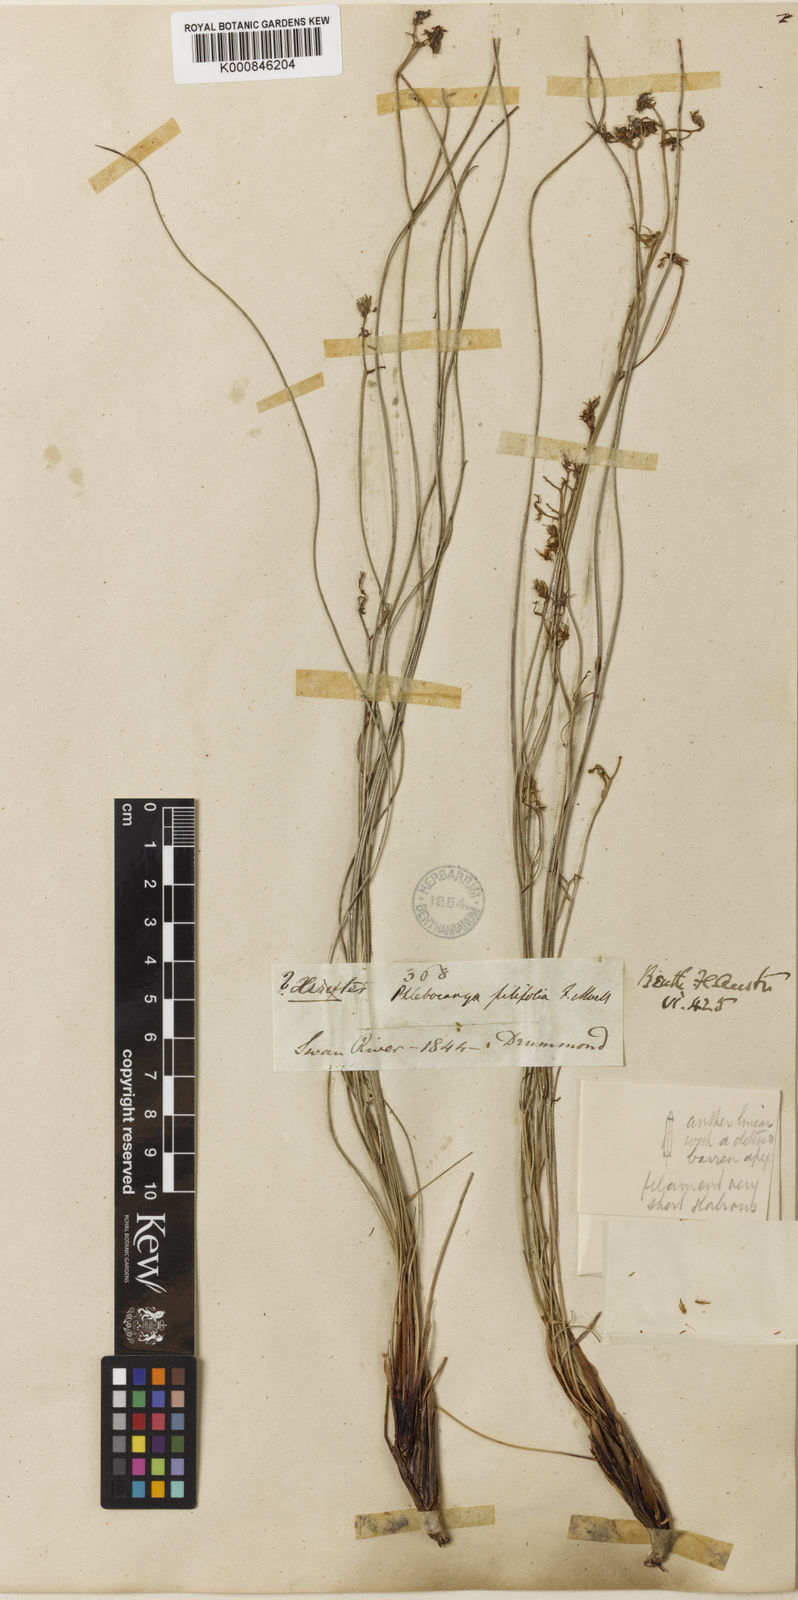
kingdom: Plantae
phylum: Tracheophyta
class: Liliopsida
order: Commelinales
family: Haemodoraceae
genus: Phlebocarya
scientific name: Phlebocarya filifolia
